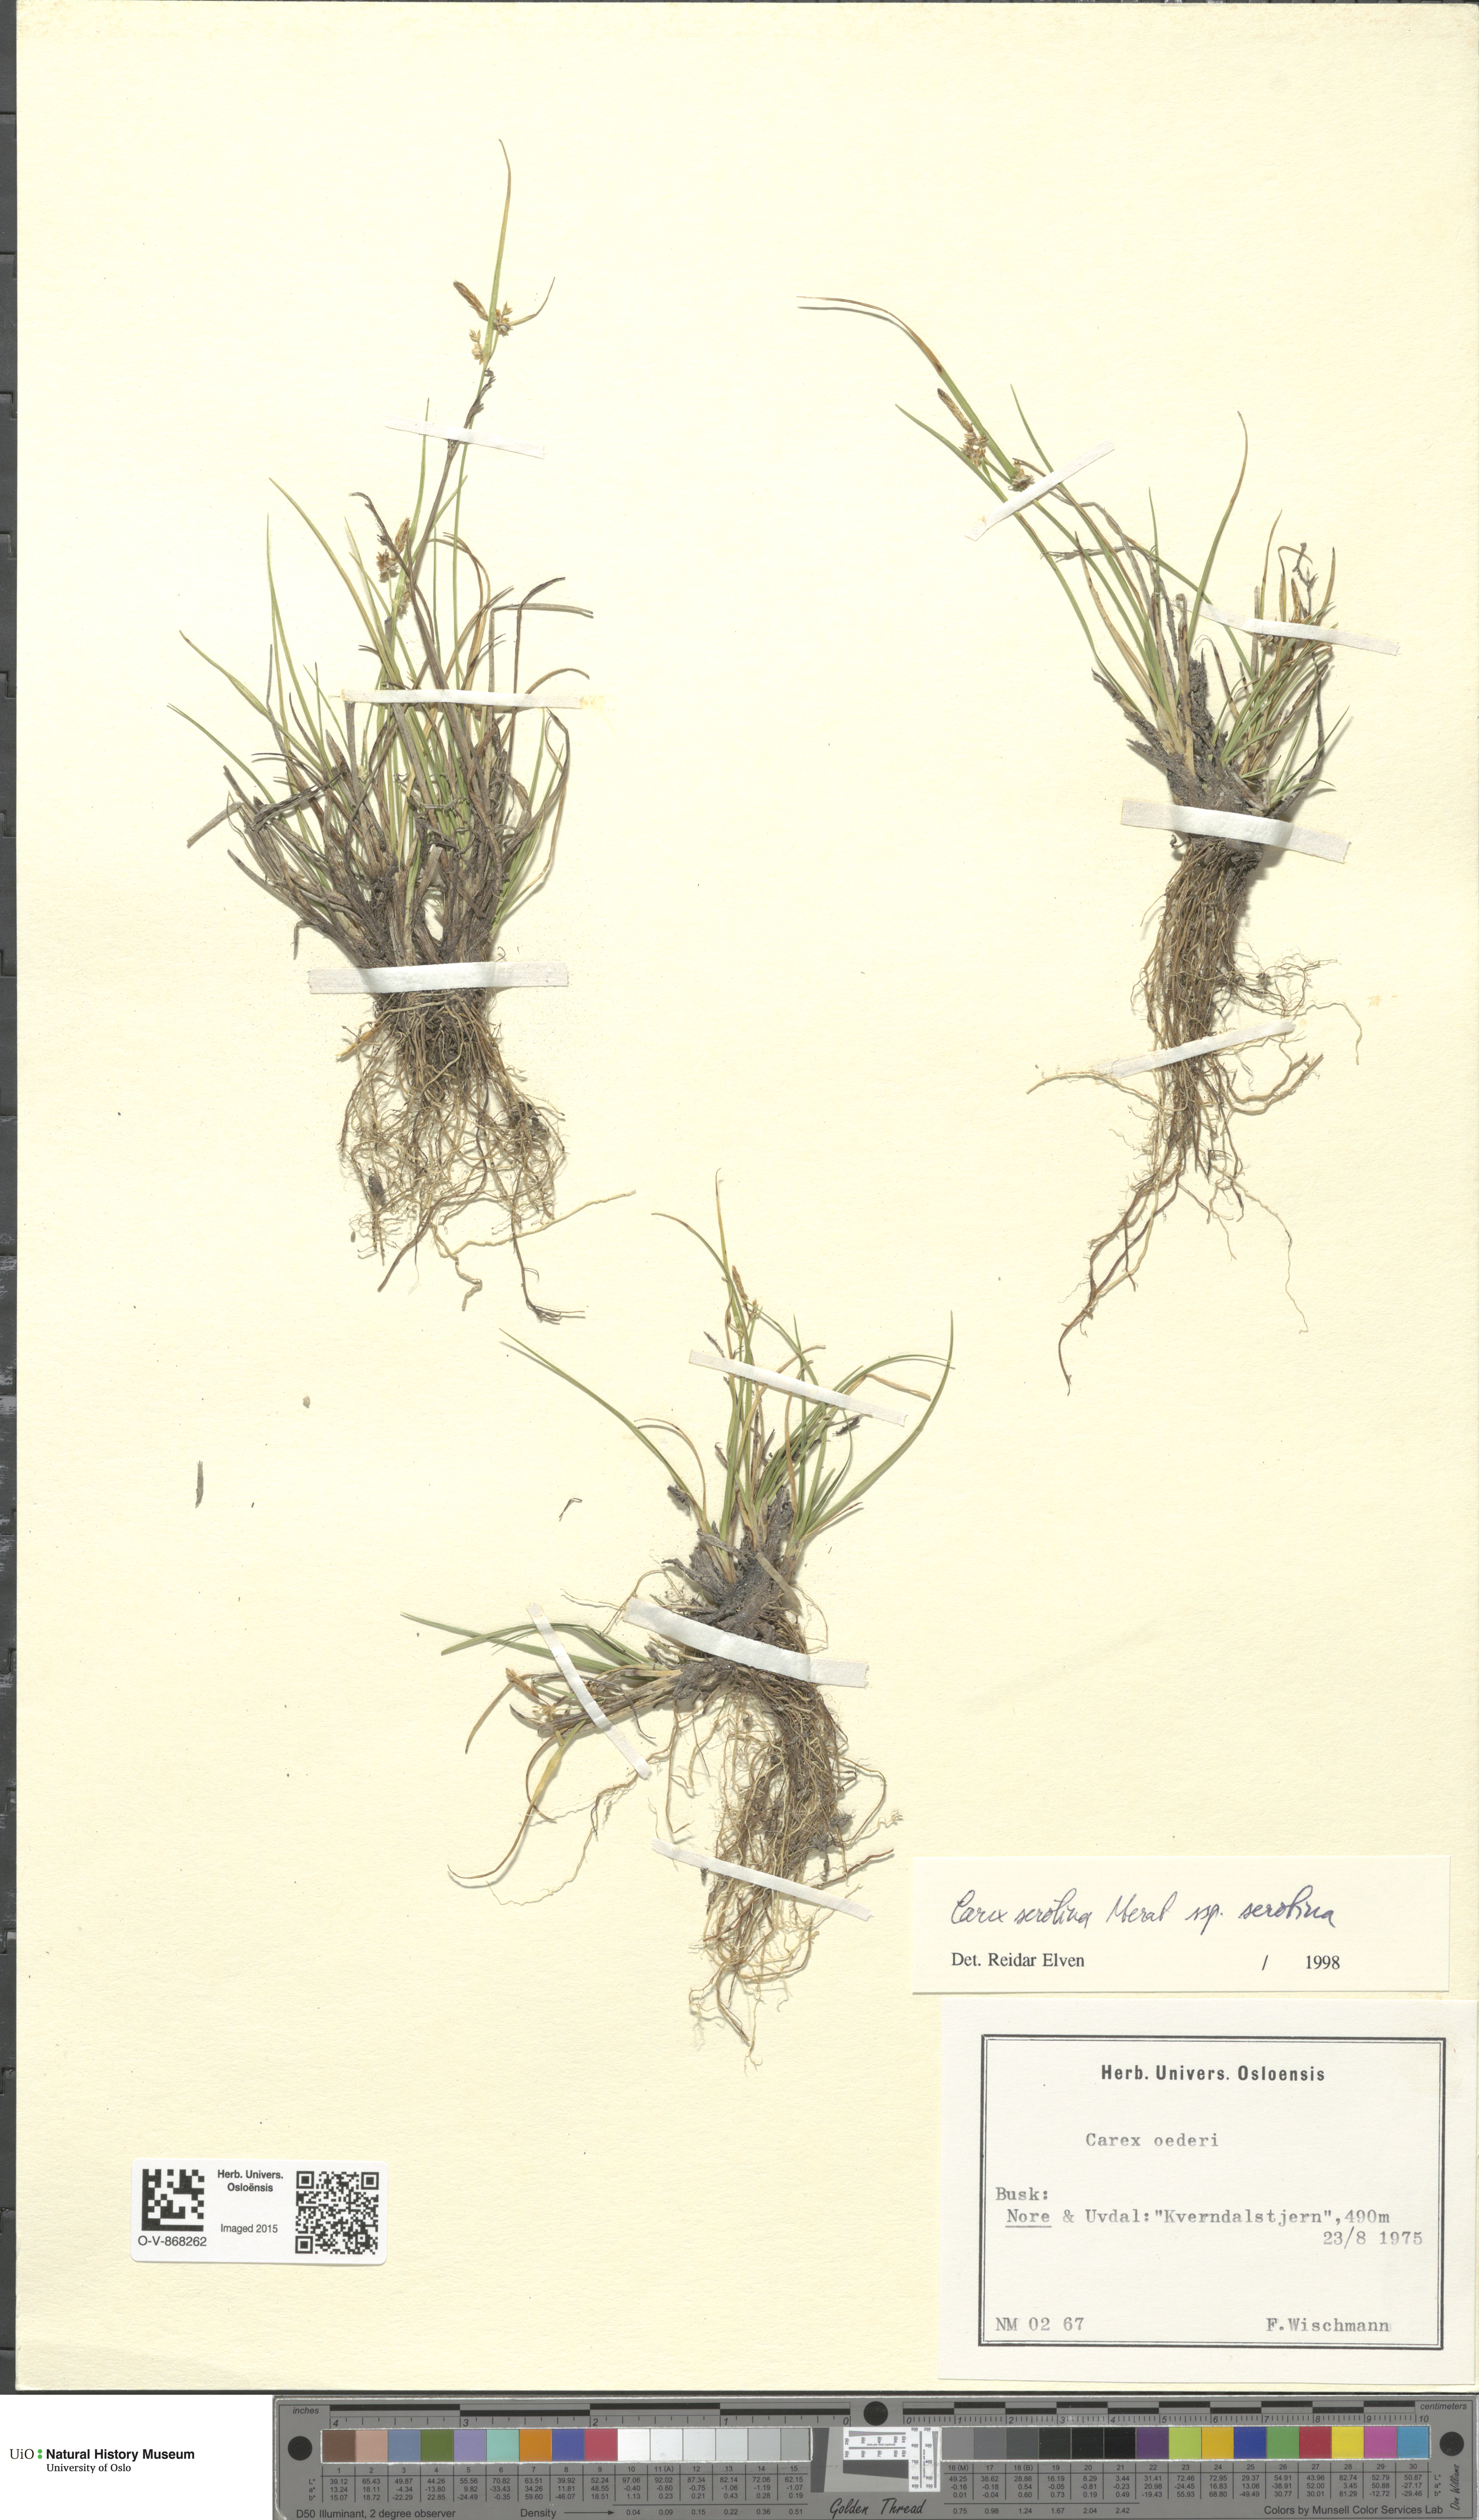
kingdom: Plantae
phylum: Tracheophyta
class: Liliopsida
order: Poales
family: Cyperaceae
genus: Carex
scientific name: Carex oederi
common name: Common & small-fruited yellow-sedge
